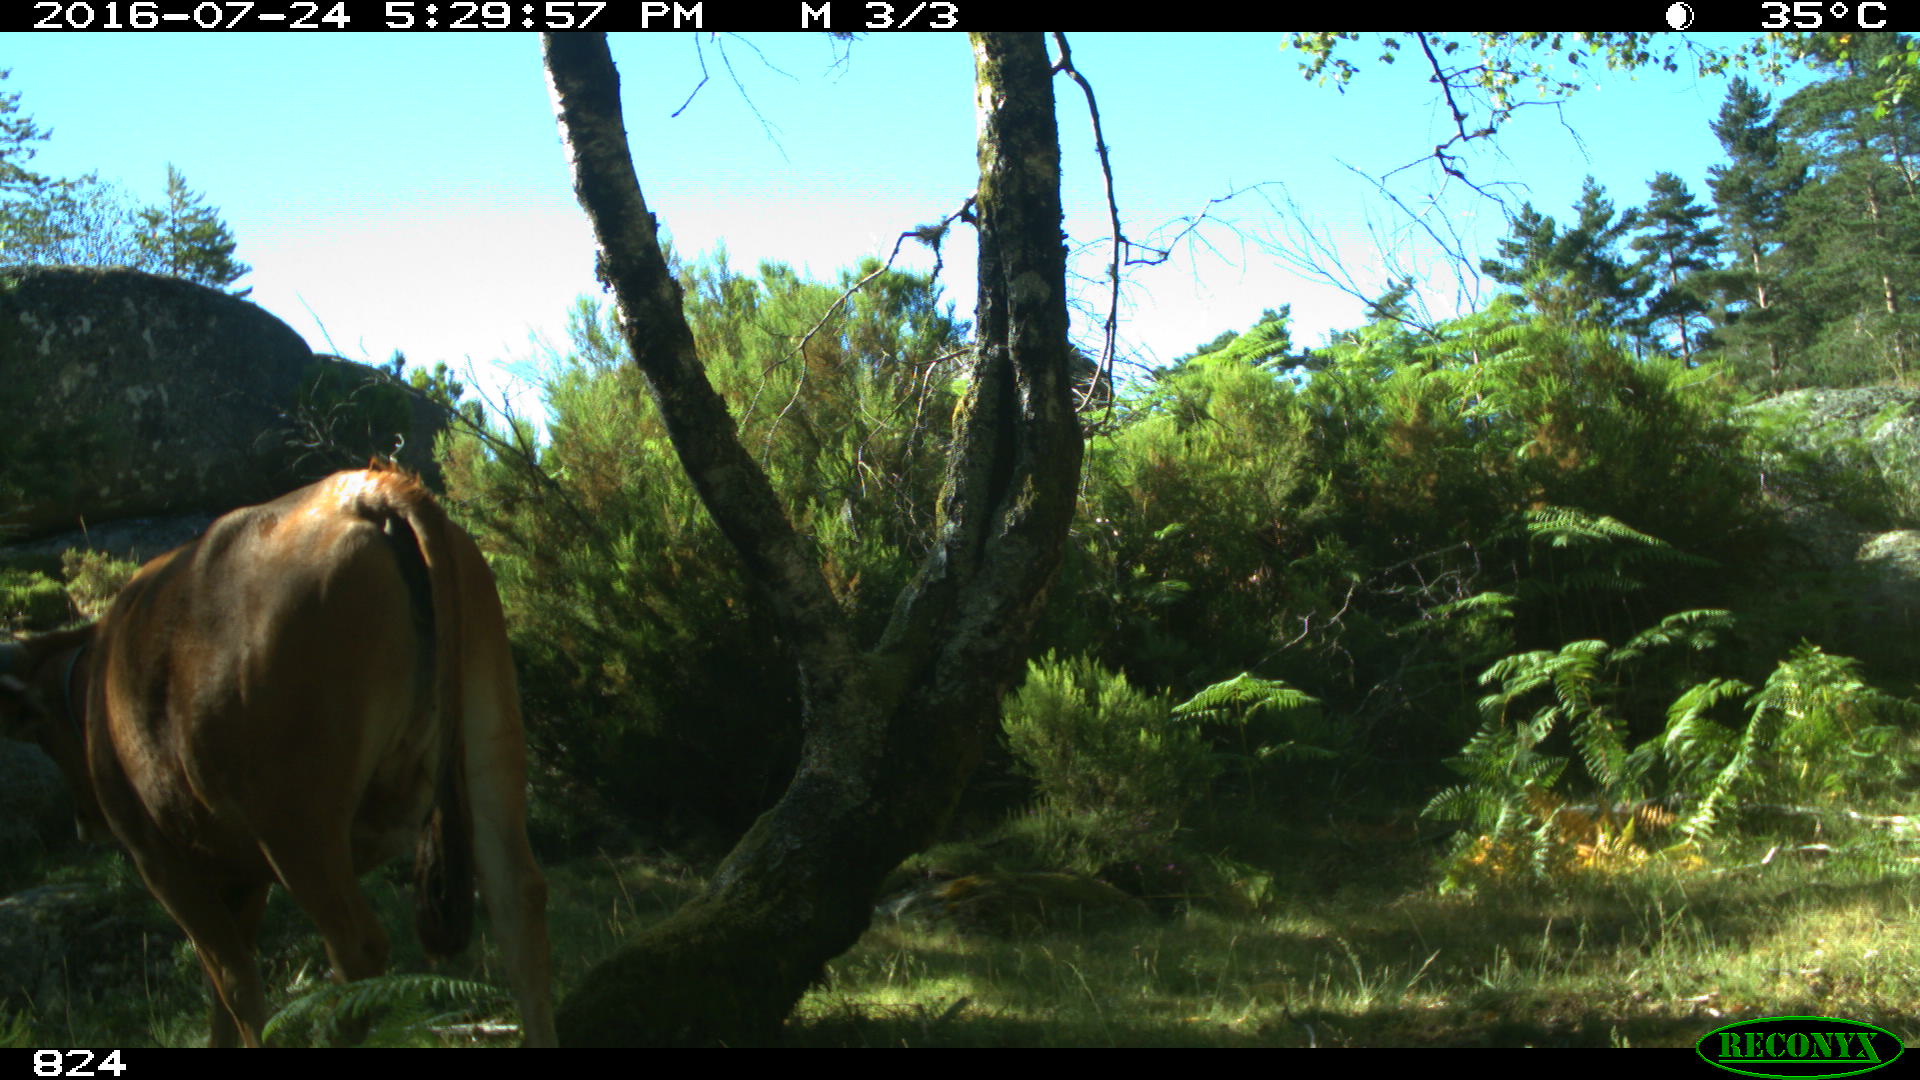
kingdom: Animalia
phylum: Chordata
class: Mammalia
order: Artiodactyla
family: Bovidae
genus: Bos
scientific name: Bos taurus
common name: Domesticated cattle
